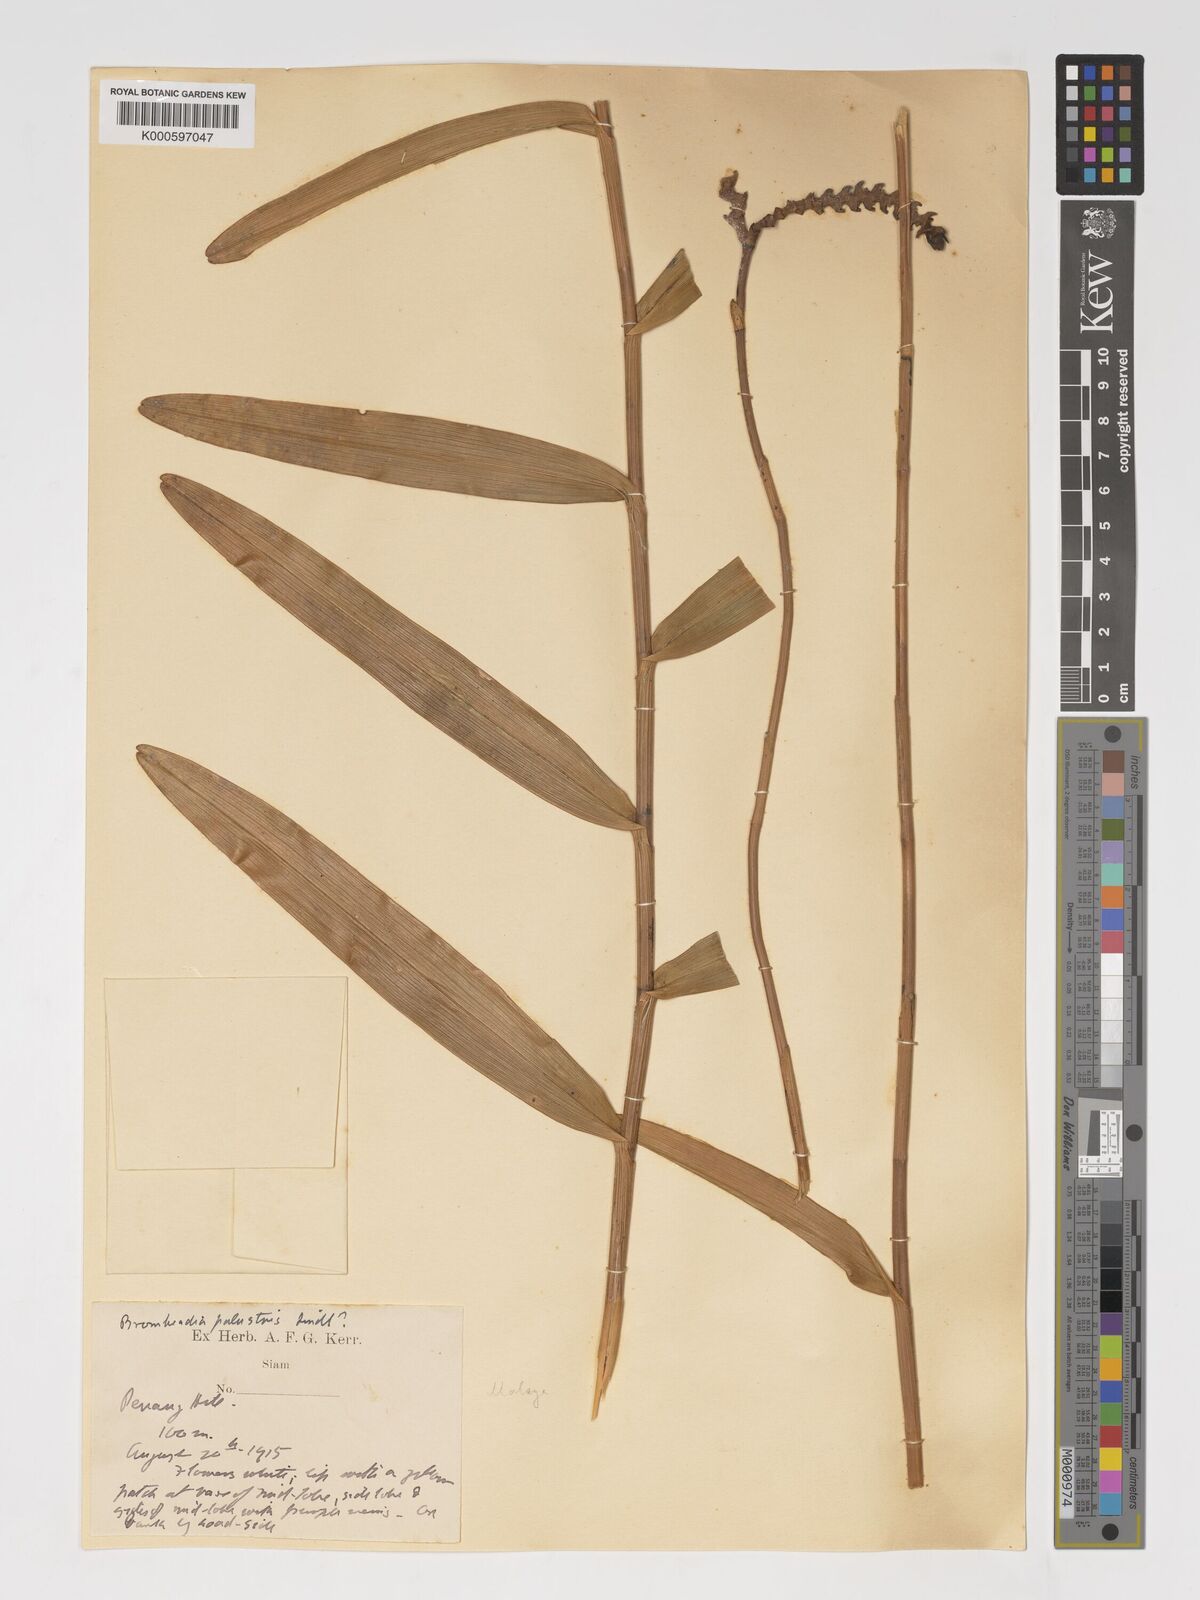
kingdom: Plantae
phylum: Tracheophyta
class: Liliopsida
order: Asparagales
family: Orchidaceae
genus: Bromheadia
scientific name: Bromheadia
